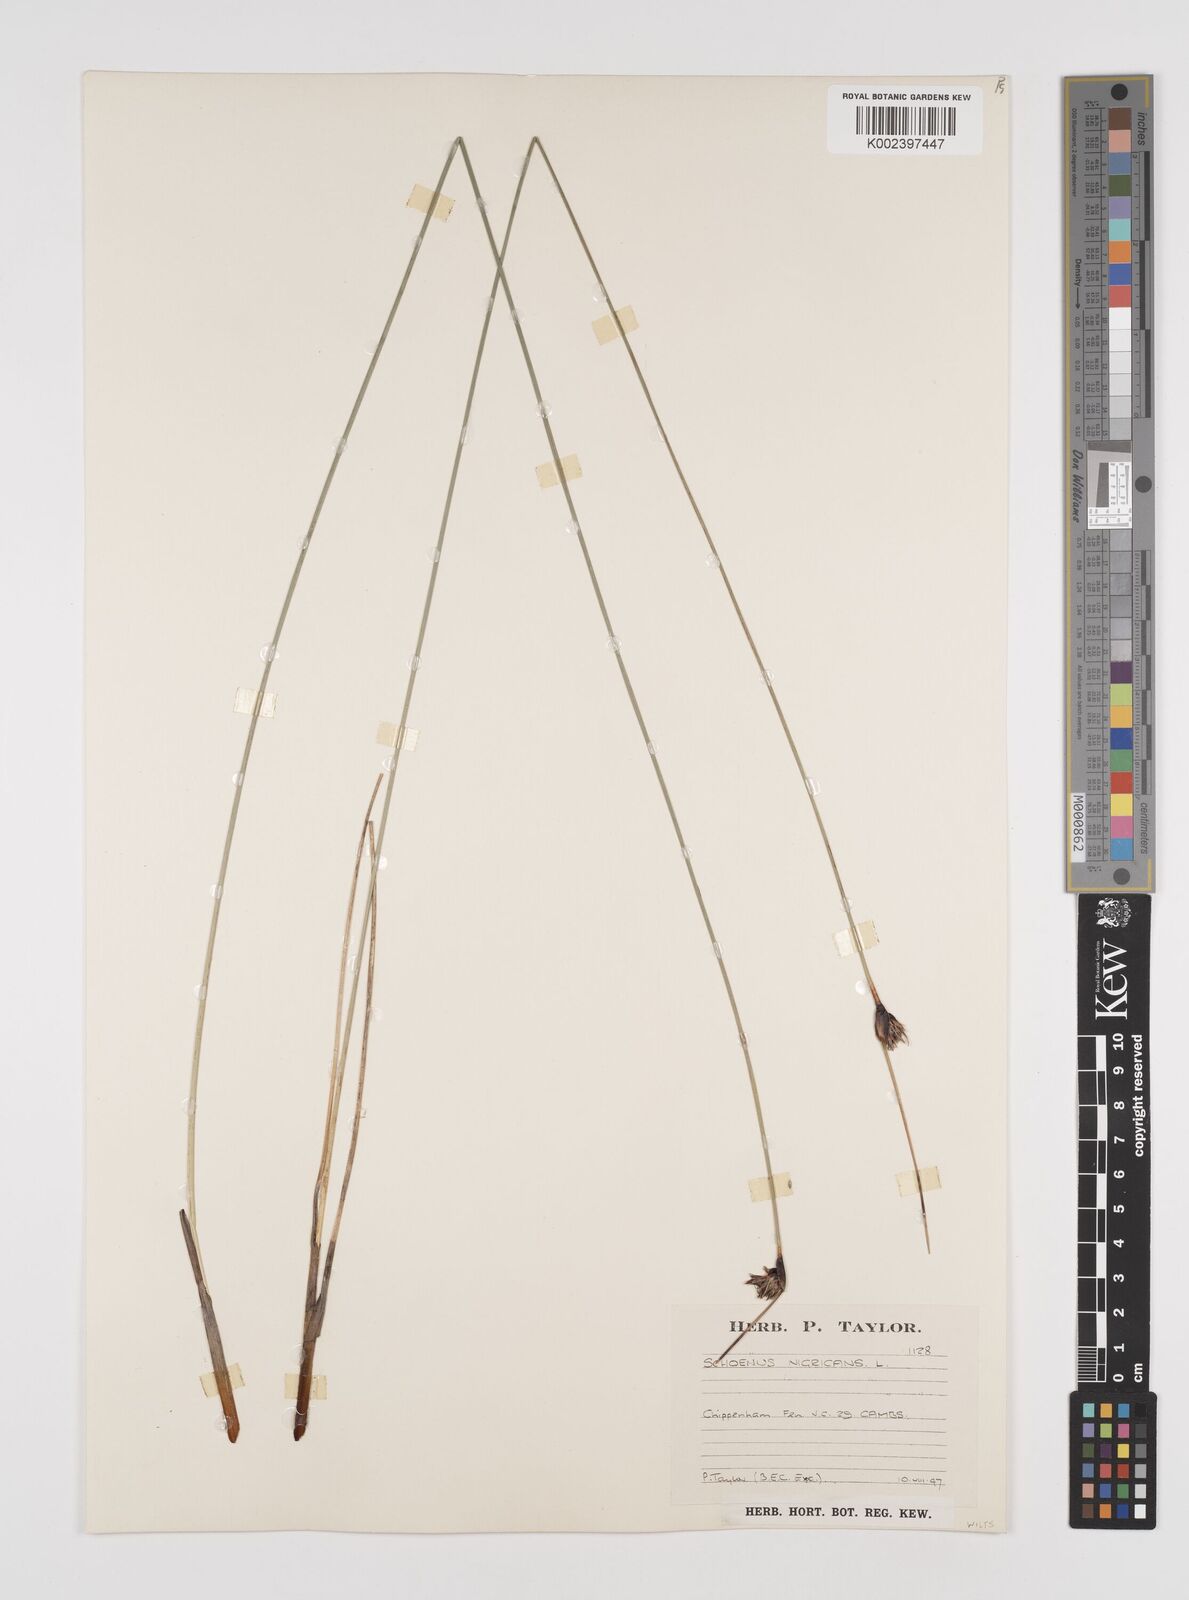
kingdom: Plantae
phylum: Tracheophyta
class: Liliopsida
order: Poales
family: Cyperaceae
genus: Schoenus
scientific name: Schoenus nigricans
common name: Black bog-rush
